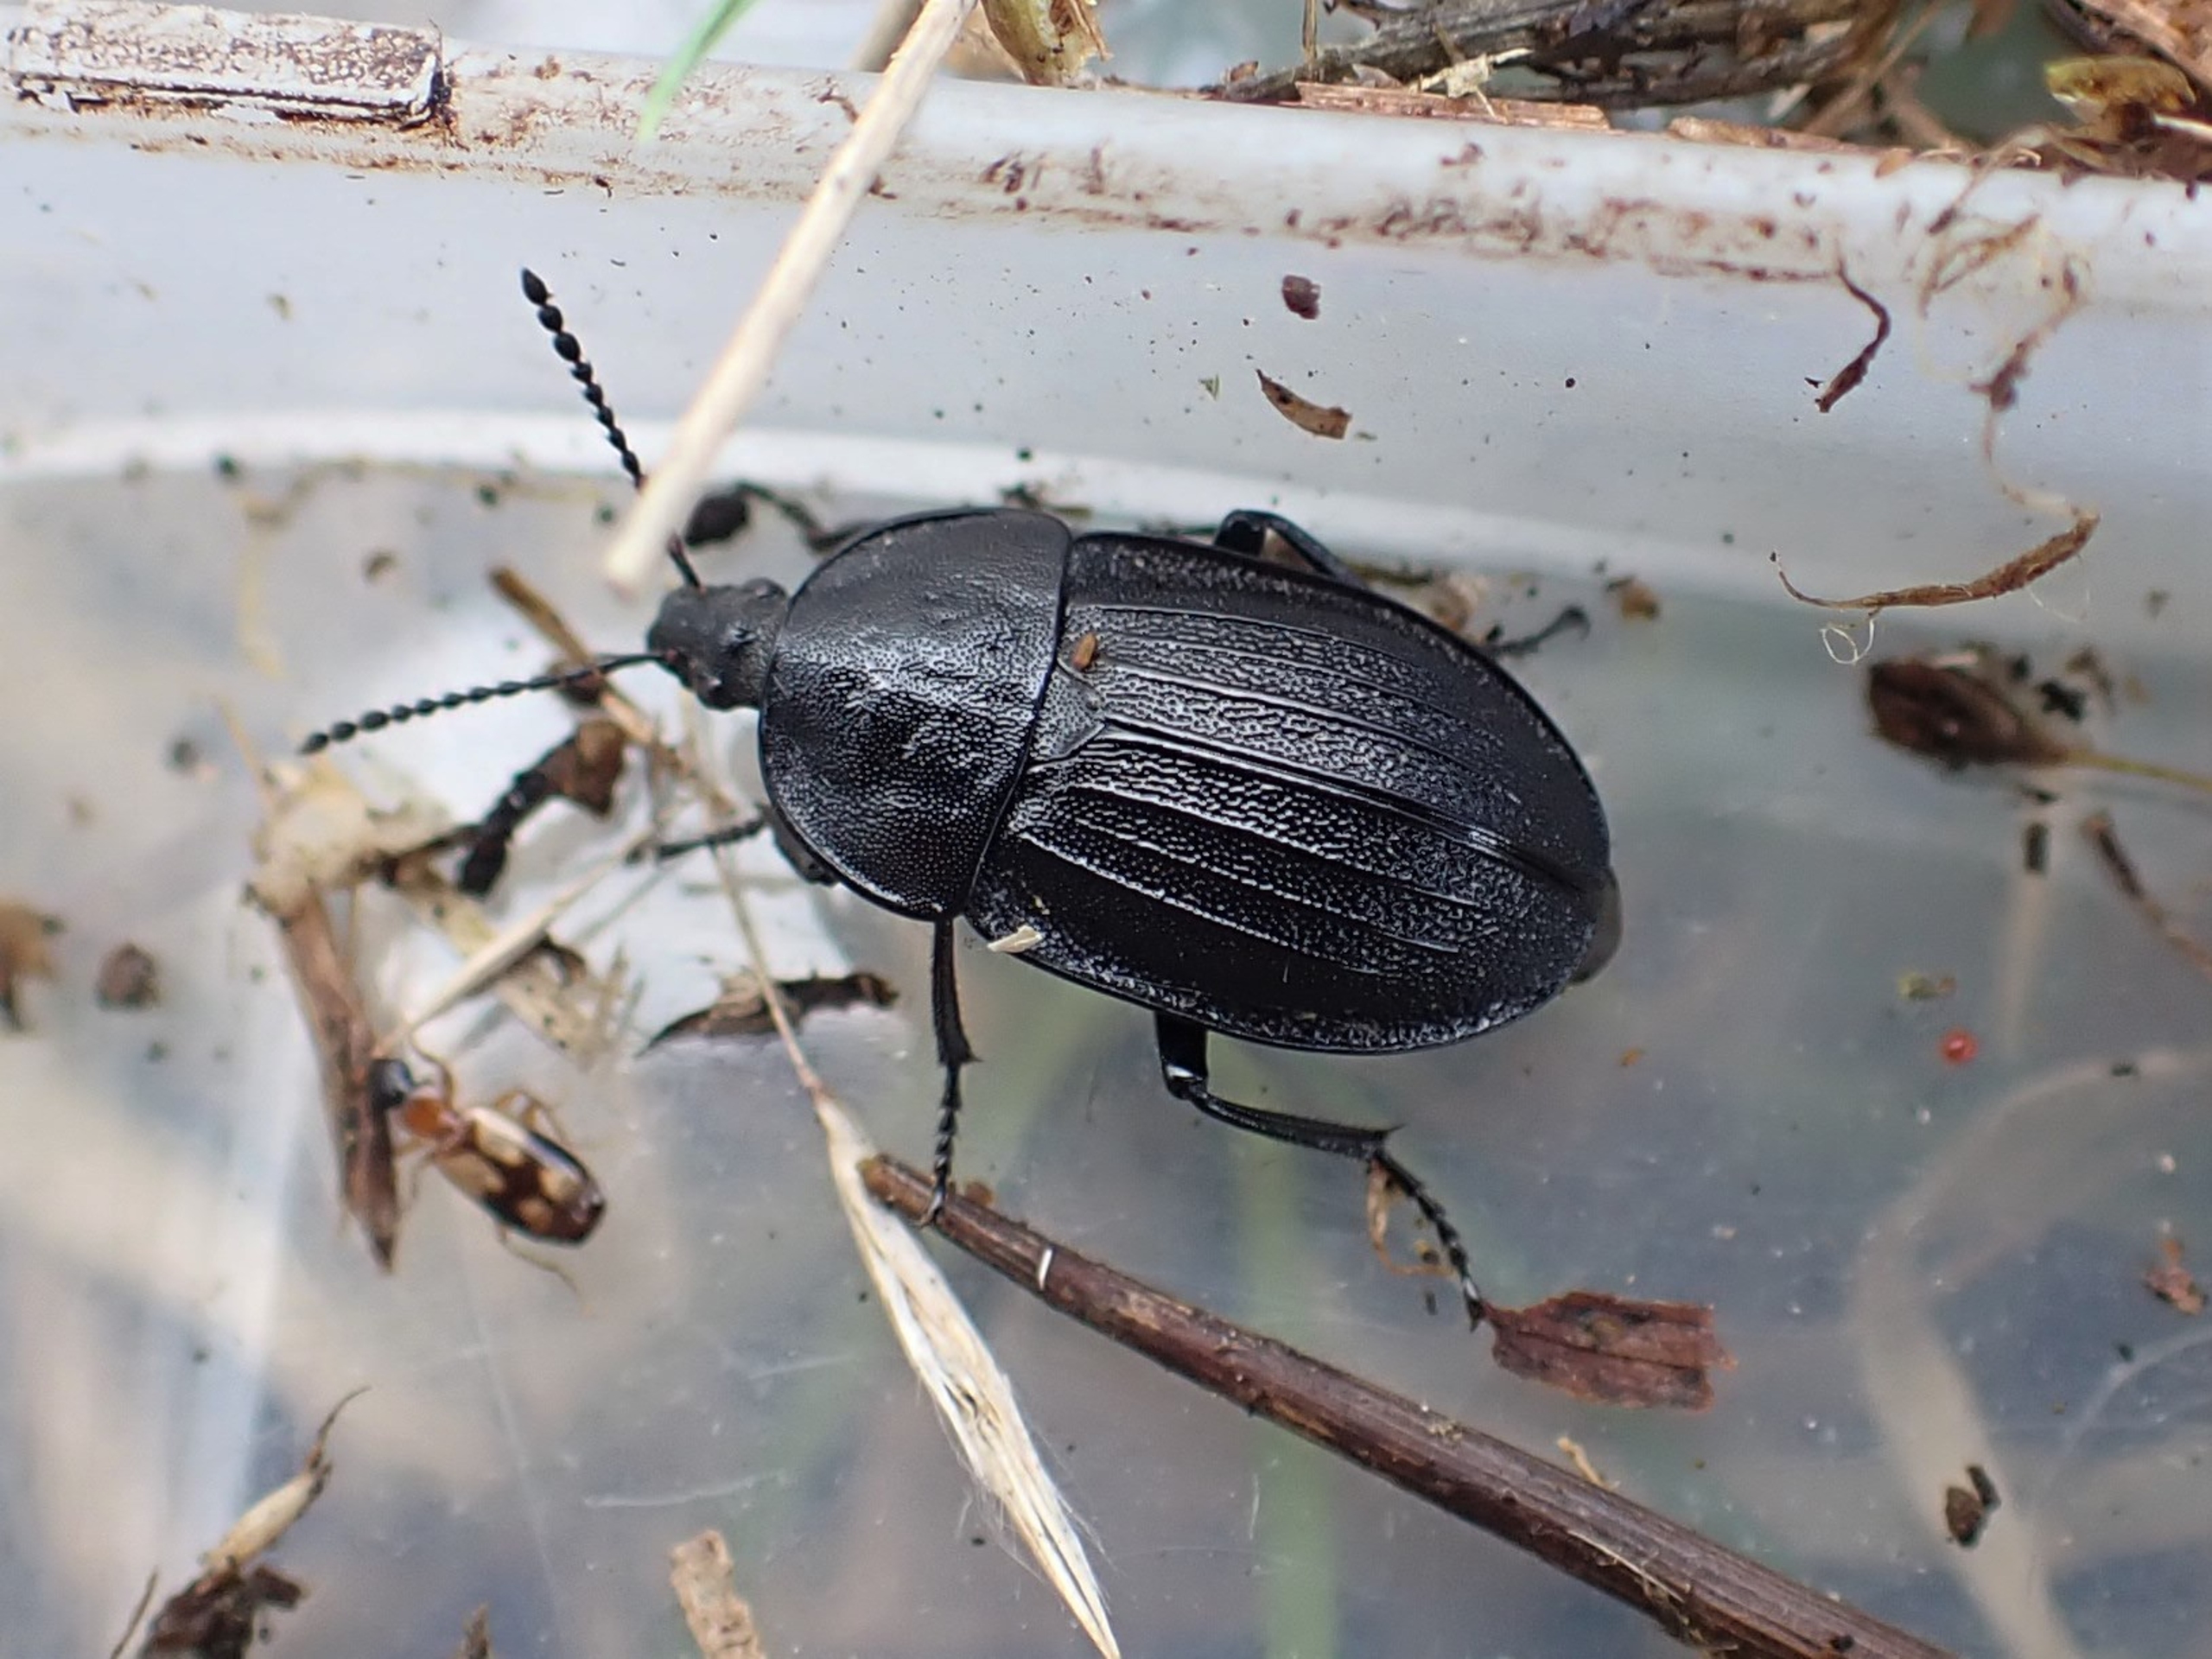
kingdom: Animalia
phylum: Arthropoda
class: Insecta
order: Coleoptera
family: Staphylinidae
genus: Silpha
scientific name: Silpha atrata
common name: Snegleådselbille
